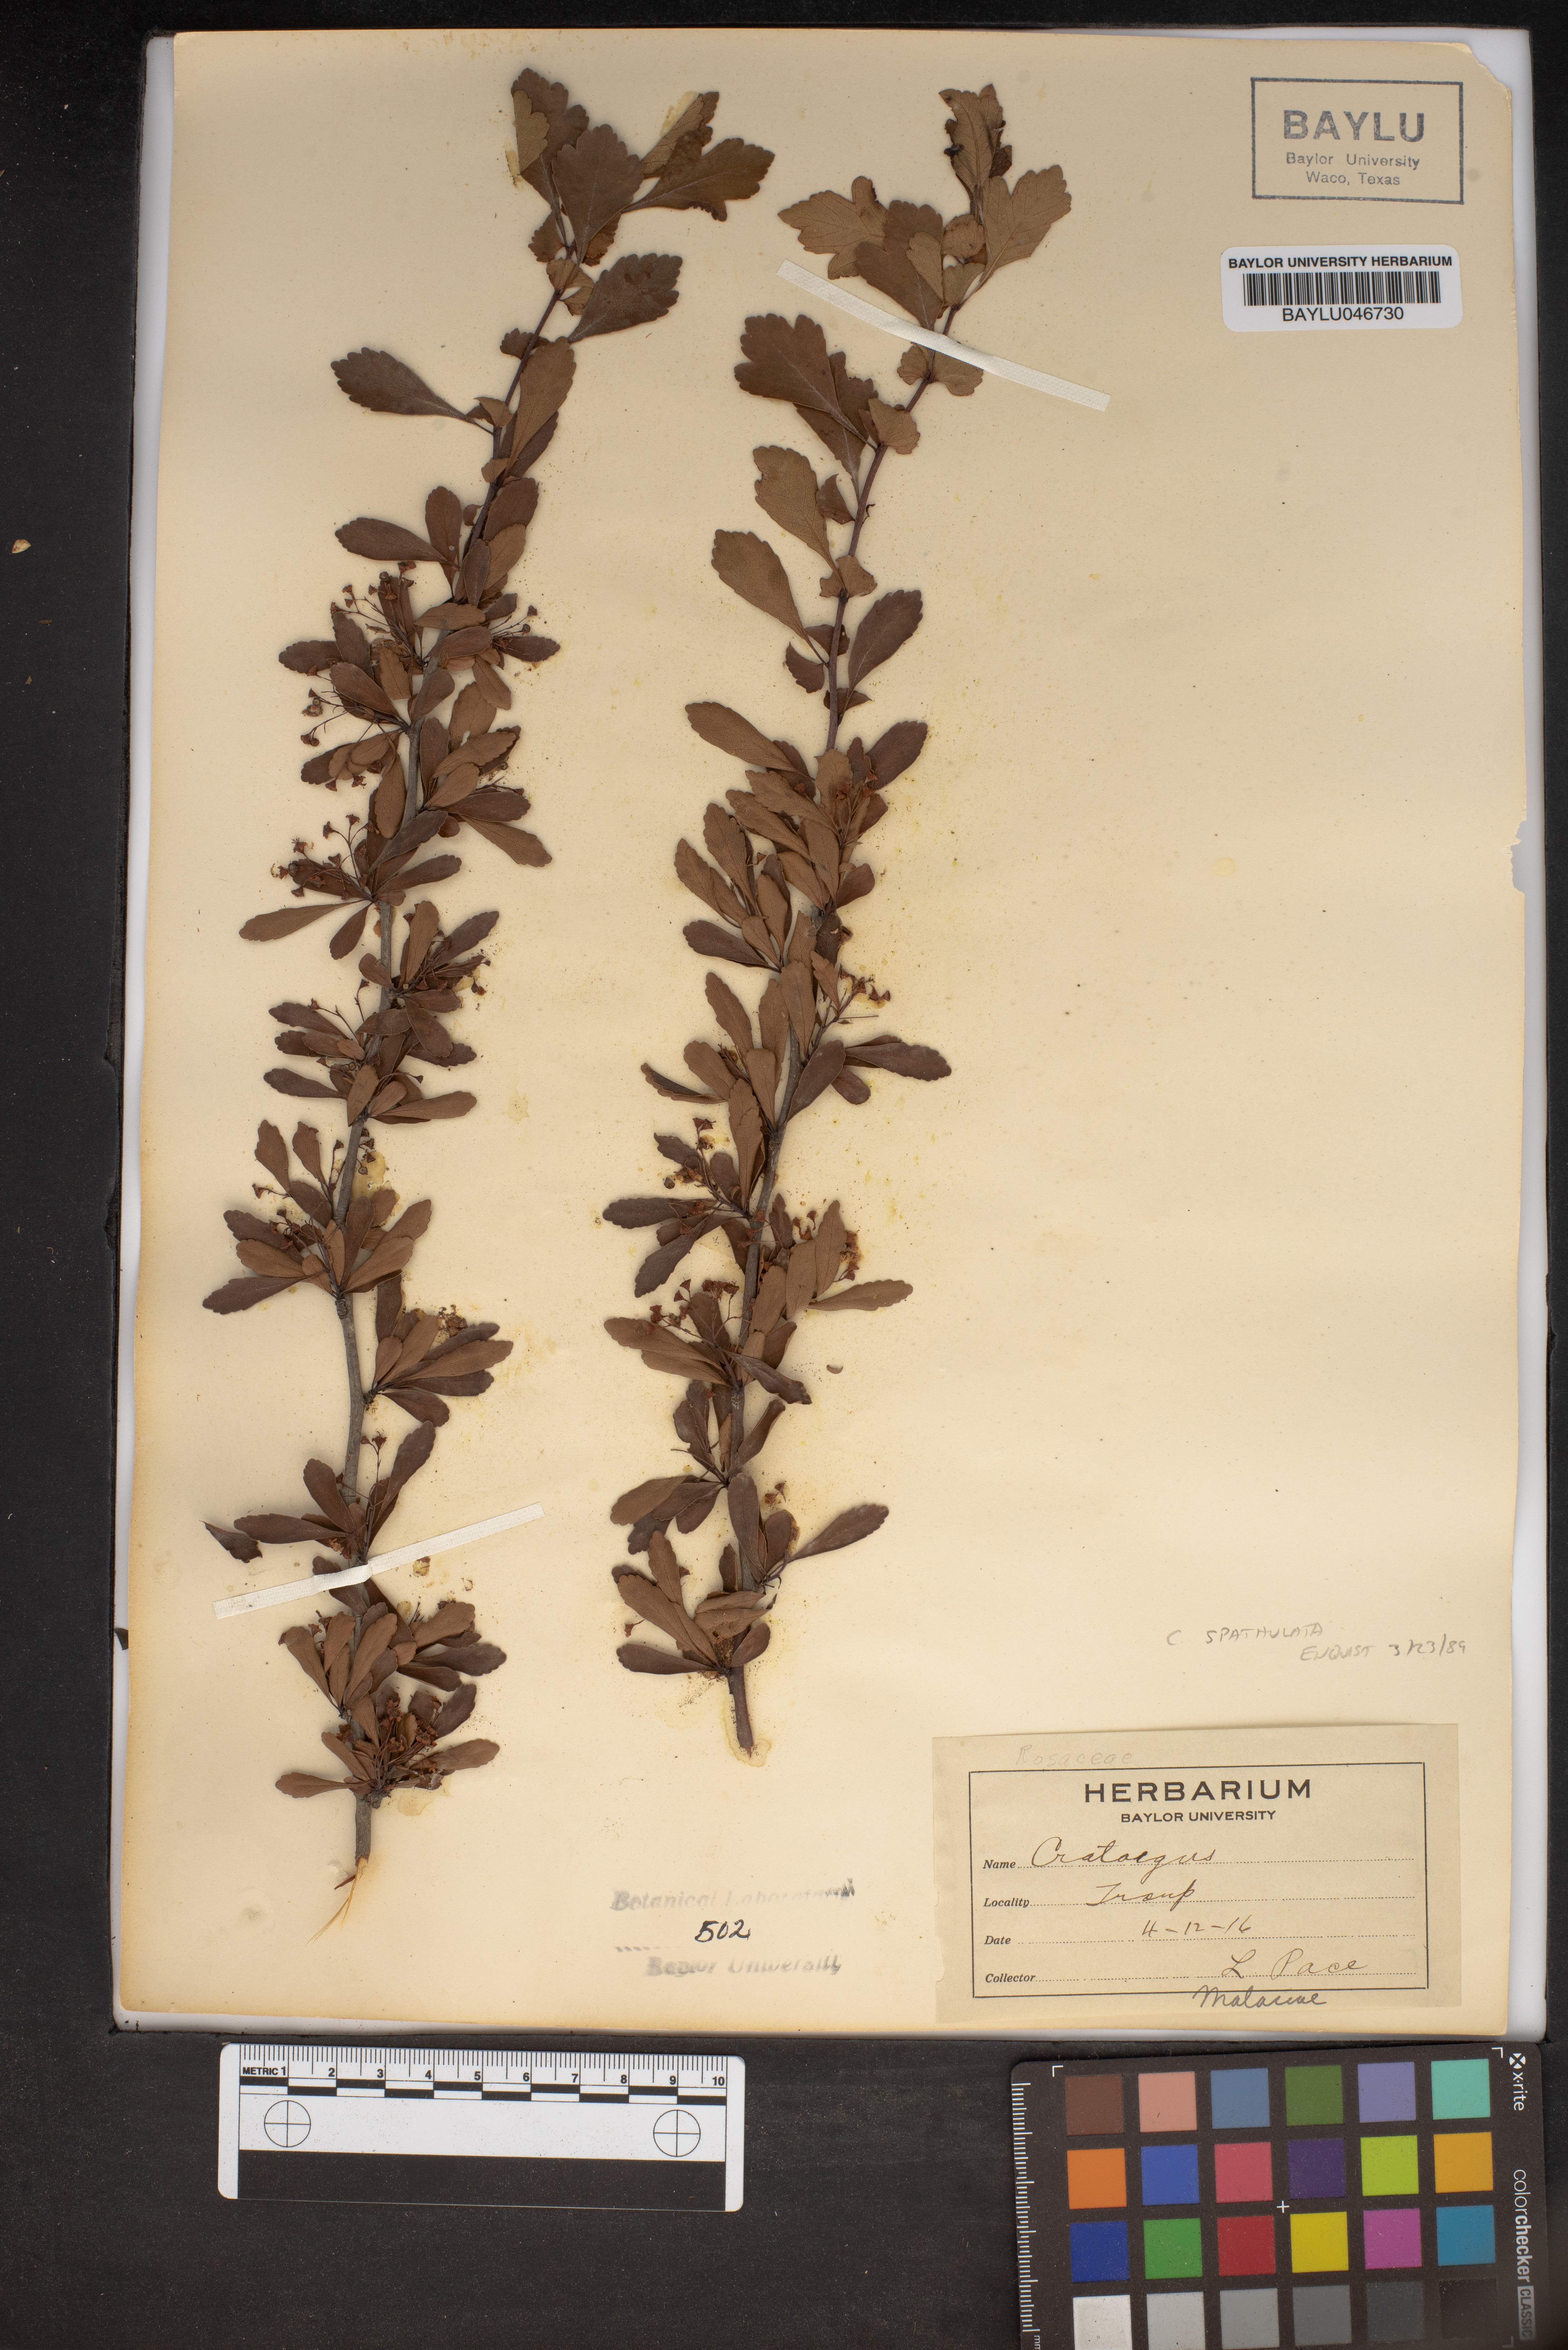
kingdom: Plantae
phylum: Tracheophyta
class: Magnoliopsida
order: Rosales
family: Rosaceae
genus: Crataegus
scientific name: Crataegus
